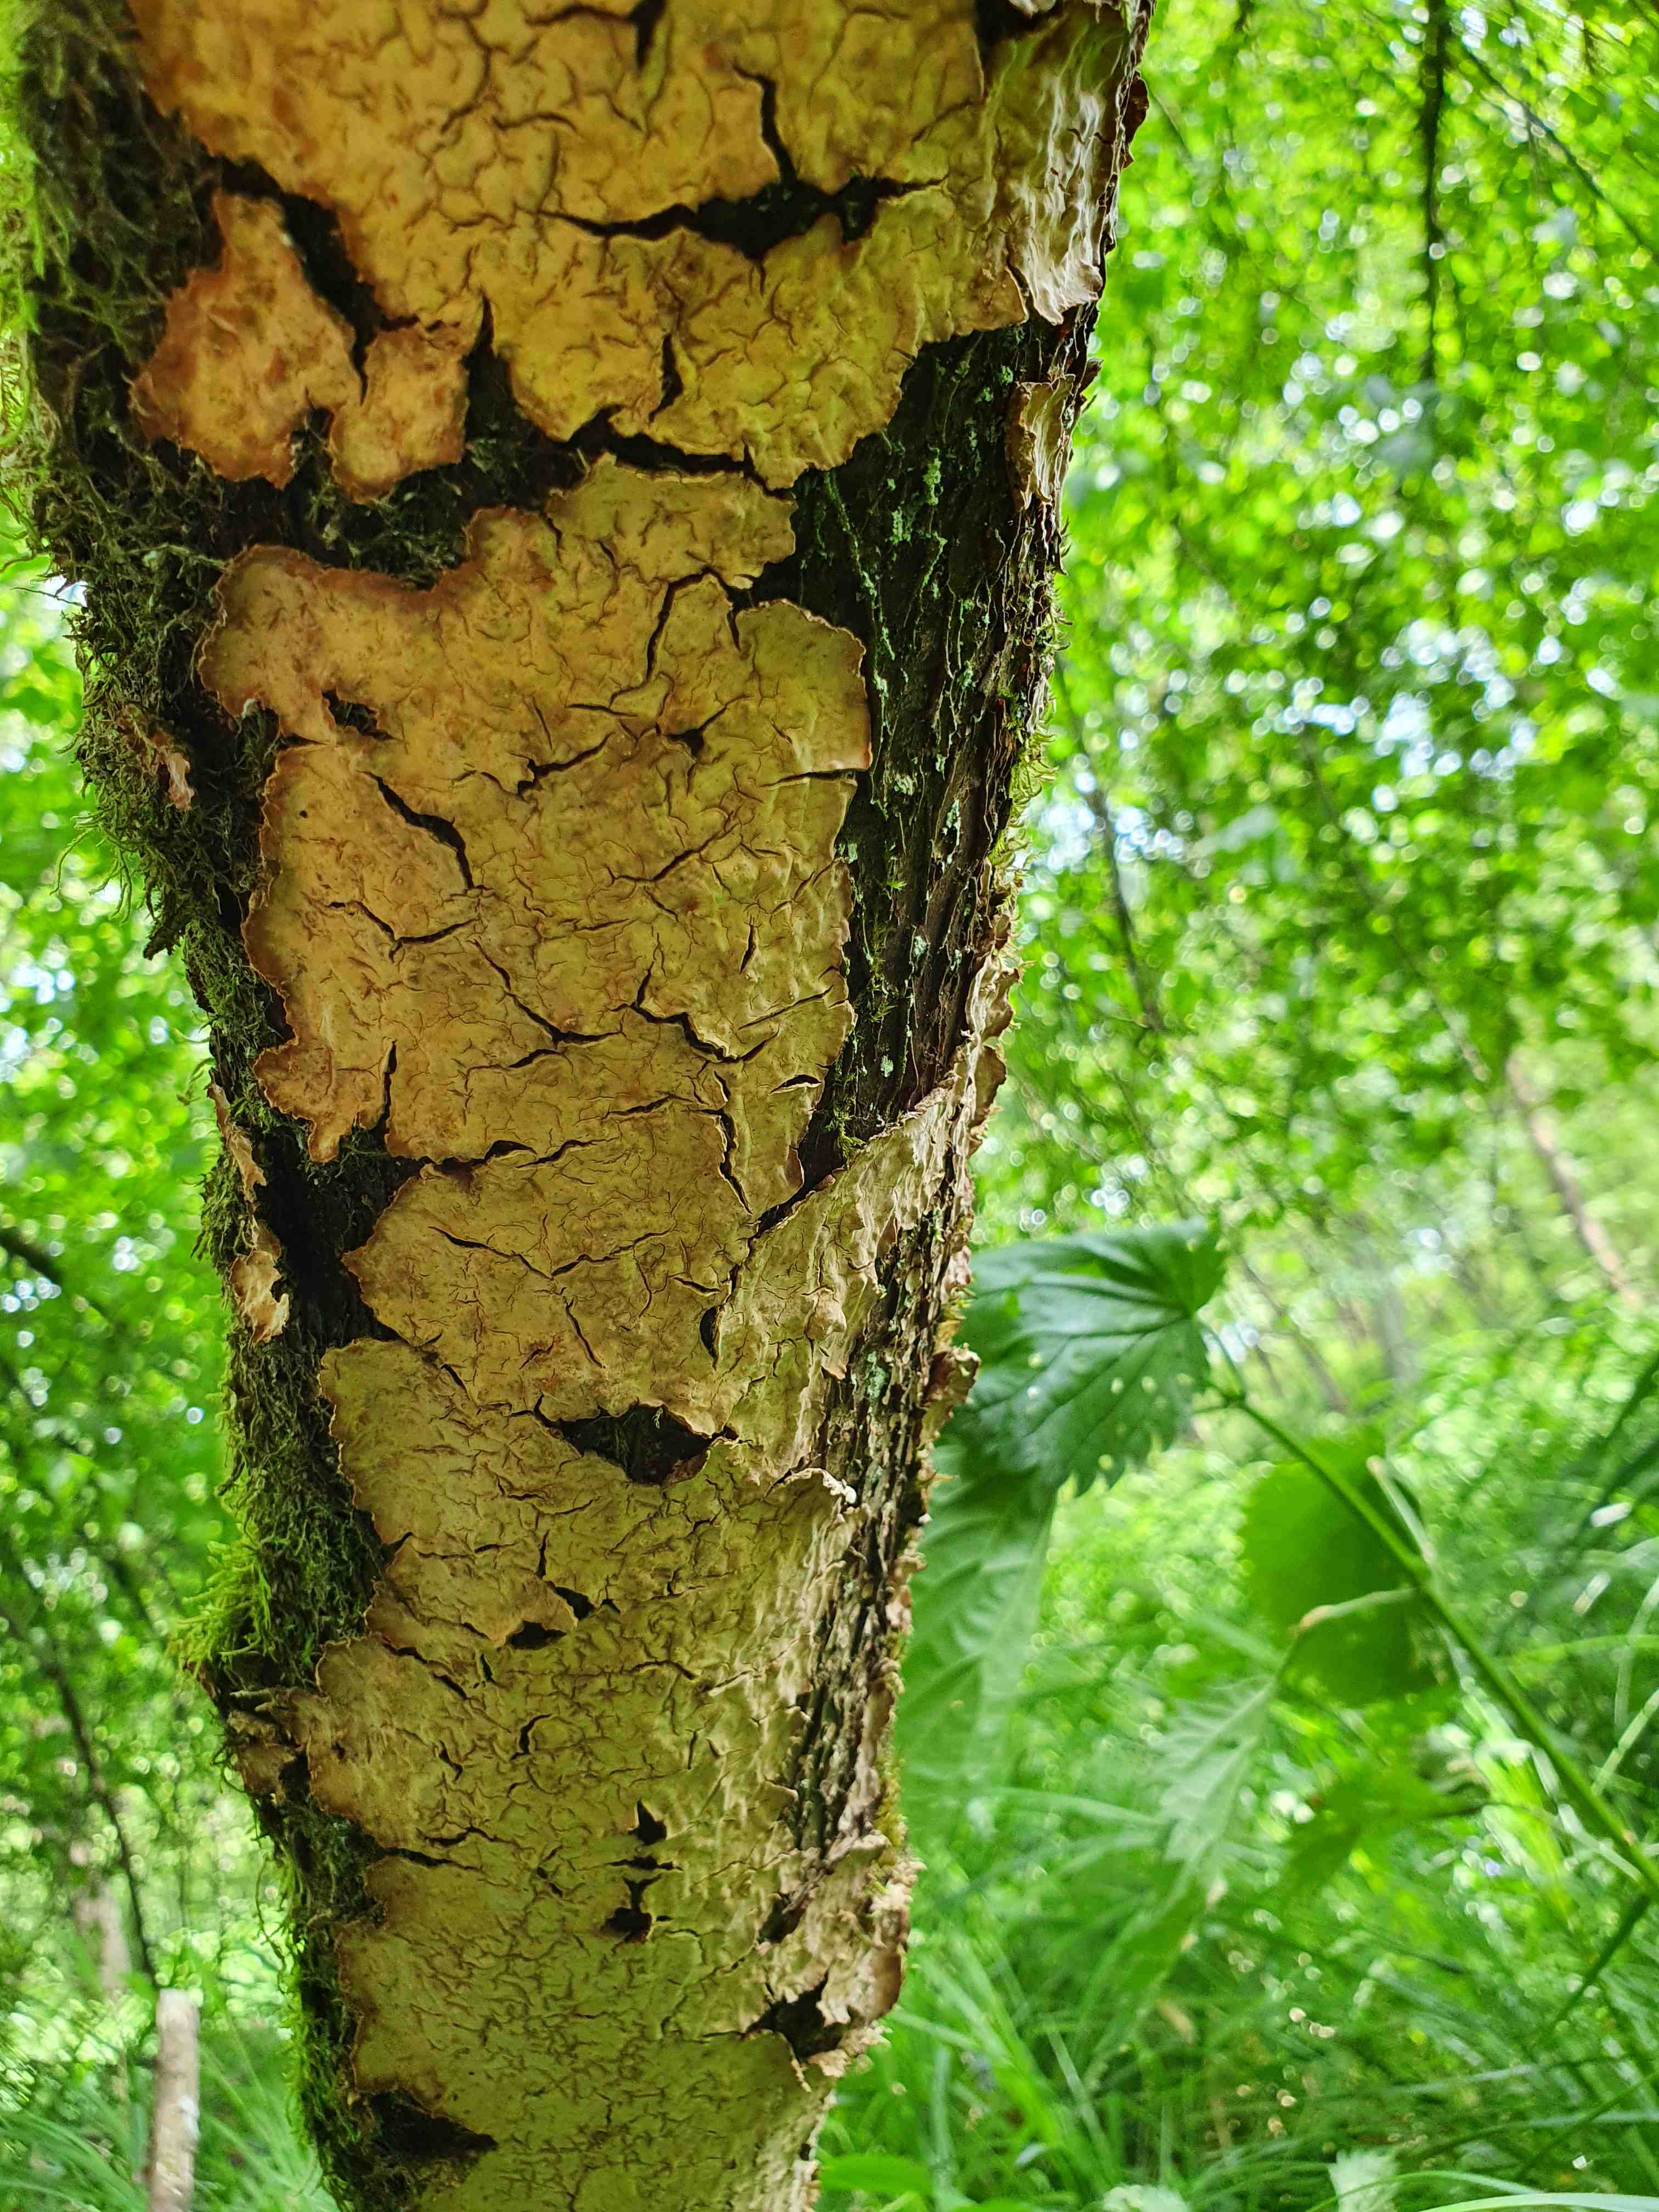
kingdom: Fungi
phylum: Basidiomycota
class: Agaricomycetes
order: Agaricales
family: Physalacriaceae
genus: Cylindrobasidium
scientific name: Cylindrobasidium evolvens
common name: sprækkehinde
